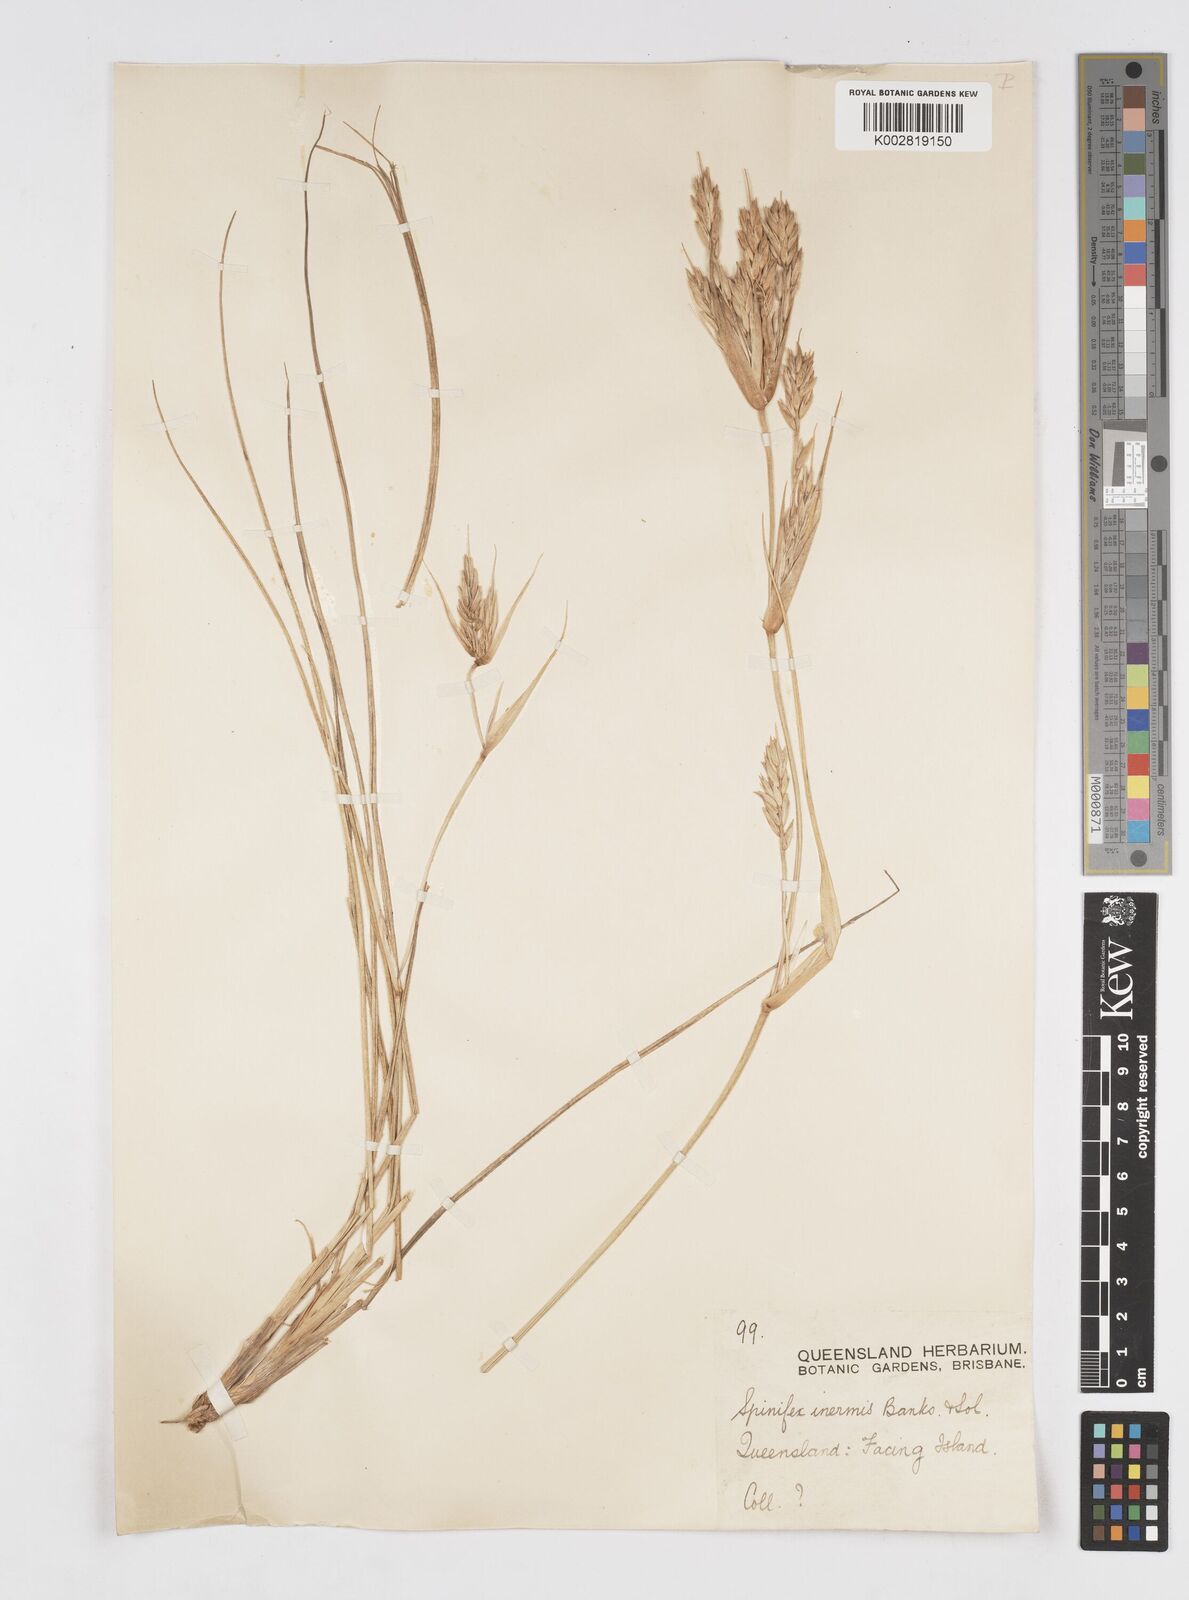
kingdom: Plantae
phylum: Tracheophyta
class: Liliopsida
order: Poales
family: Poaceae
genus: Spinifex
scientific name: Spinifex hirsutus
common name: Hairy spinifex
